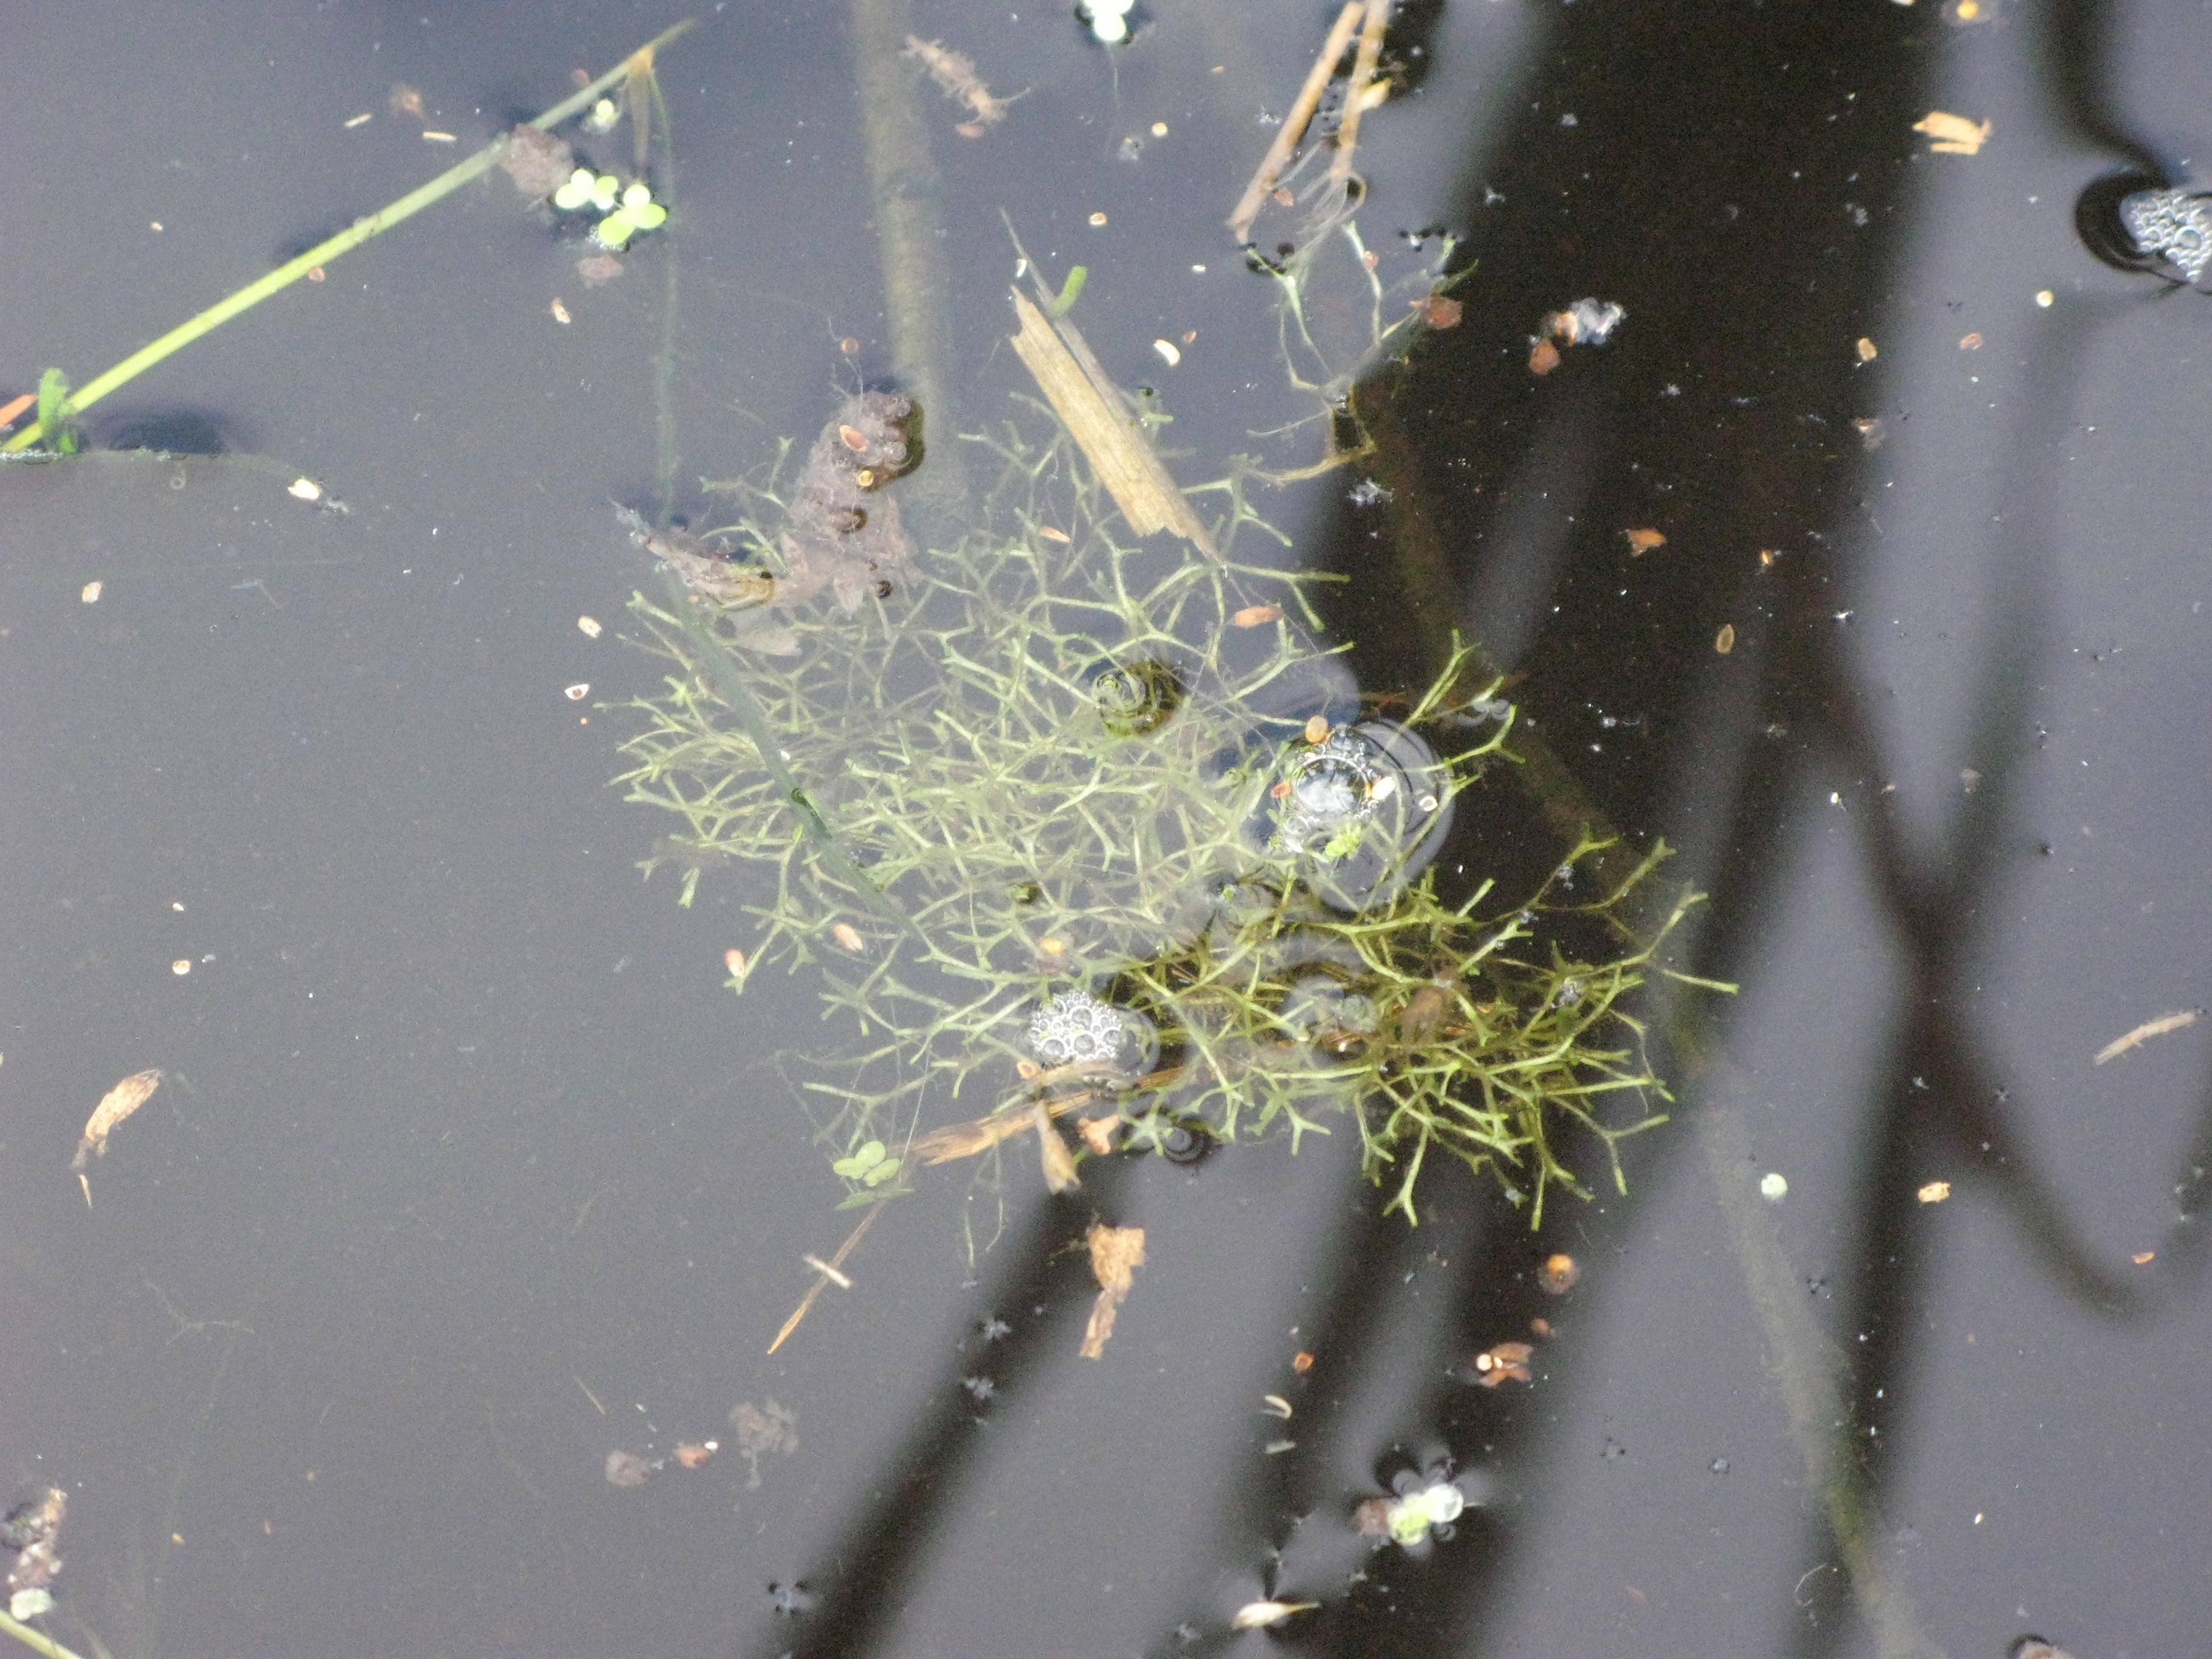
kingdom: Plantae
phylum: Marchantiophyta
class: Marchantiopsida
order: Marchantiales
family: Ricciaceae
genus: Riccia
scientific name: Riccia fluitans
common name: Svømmende stjerneløv
